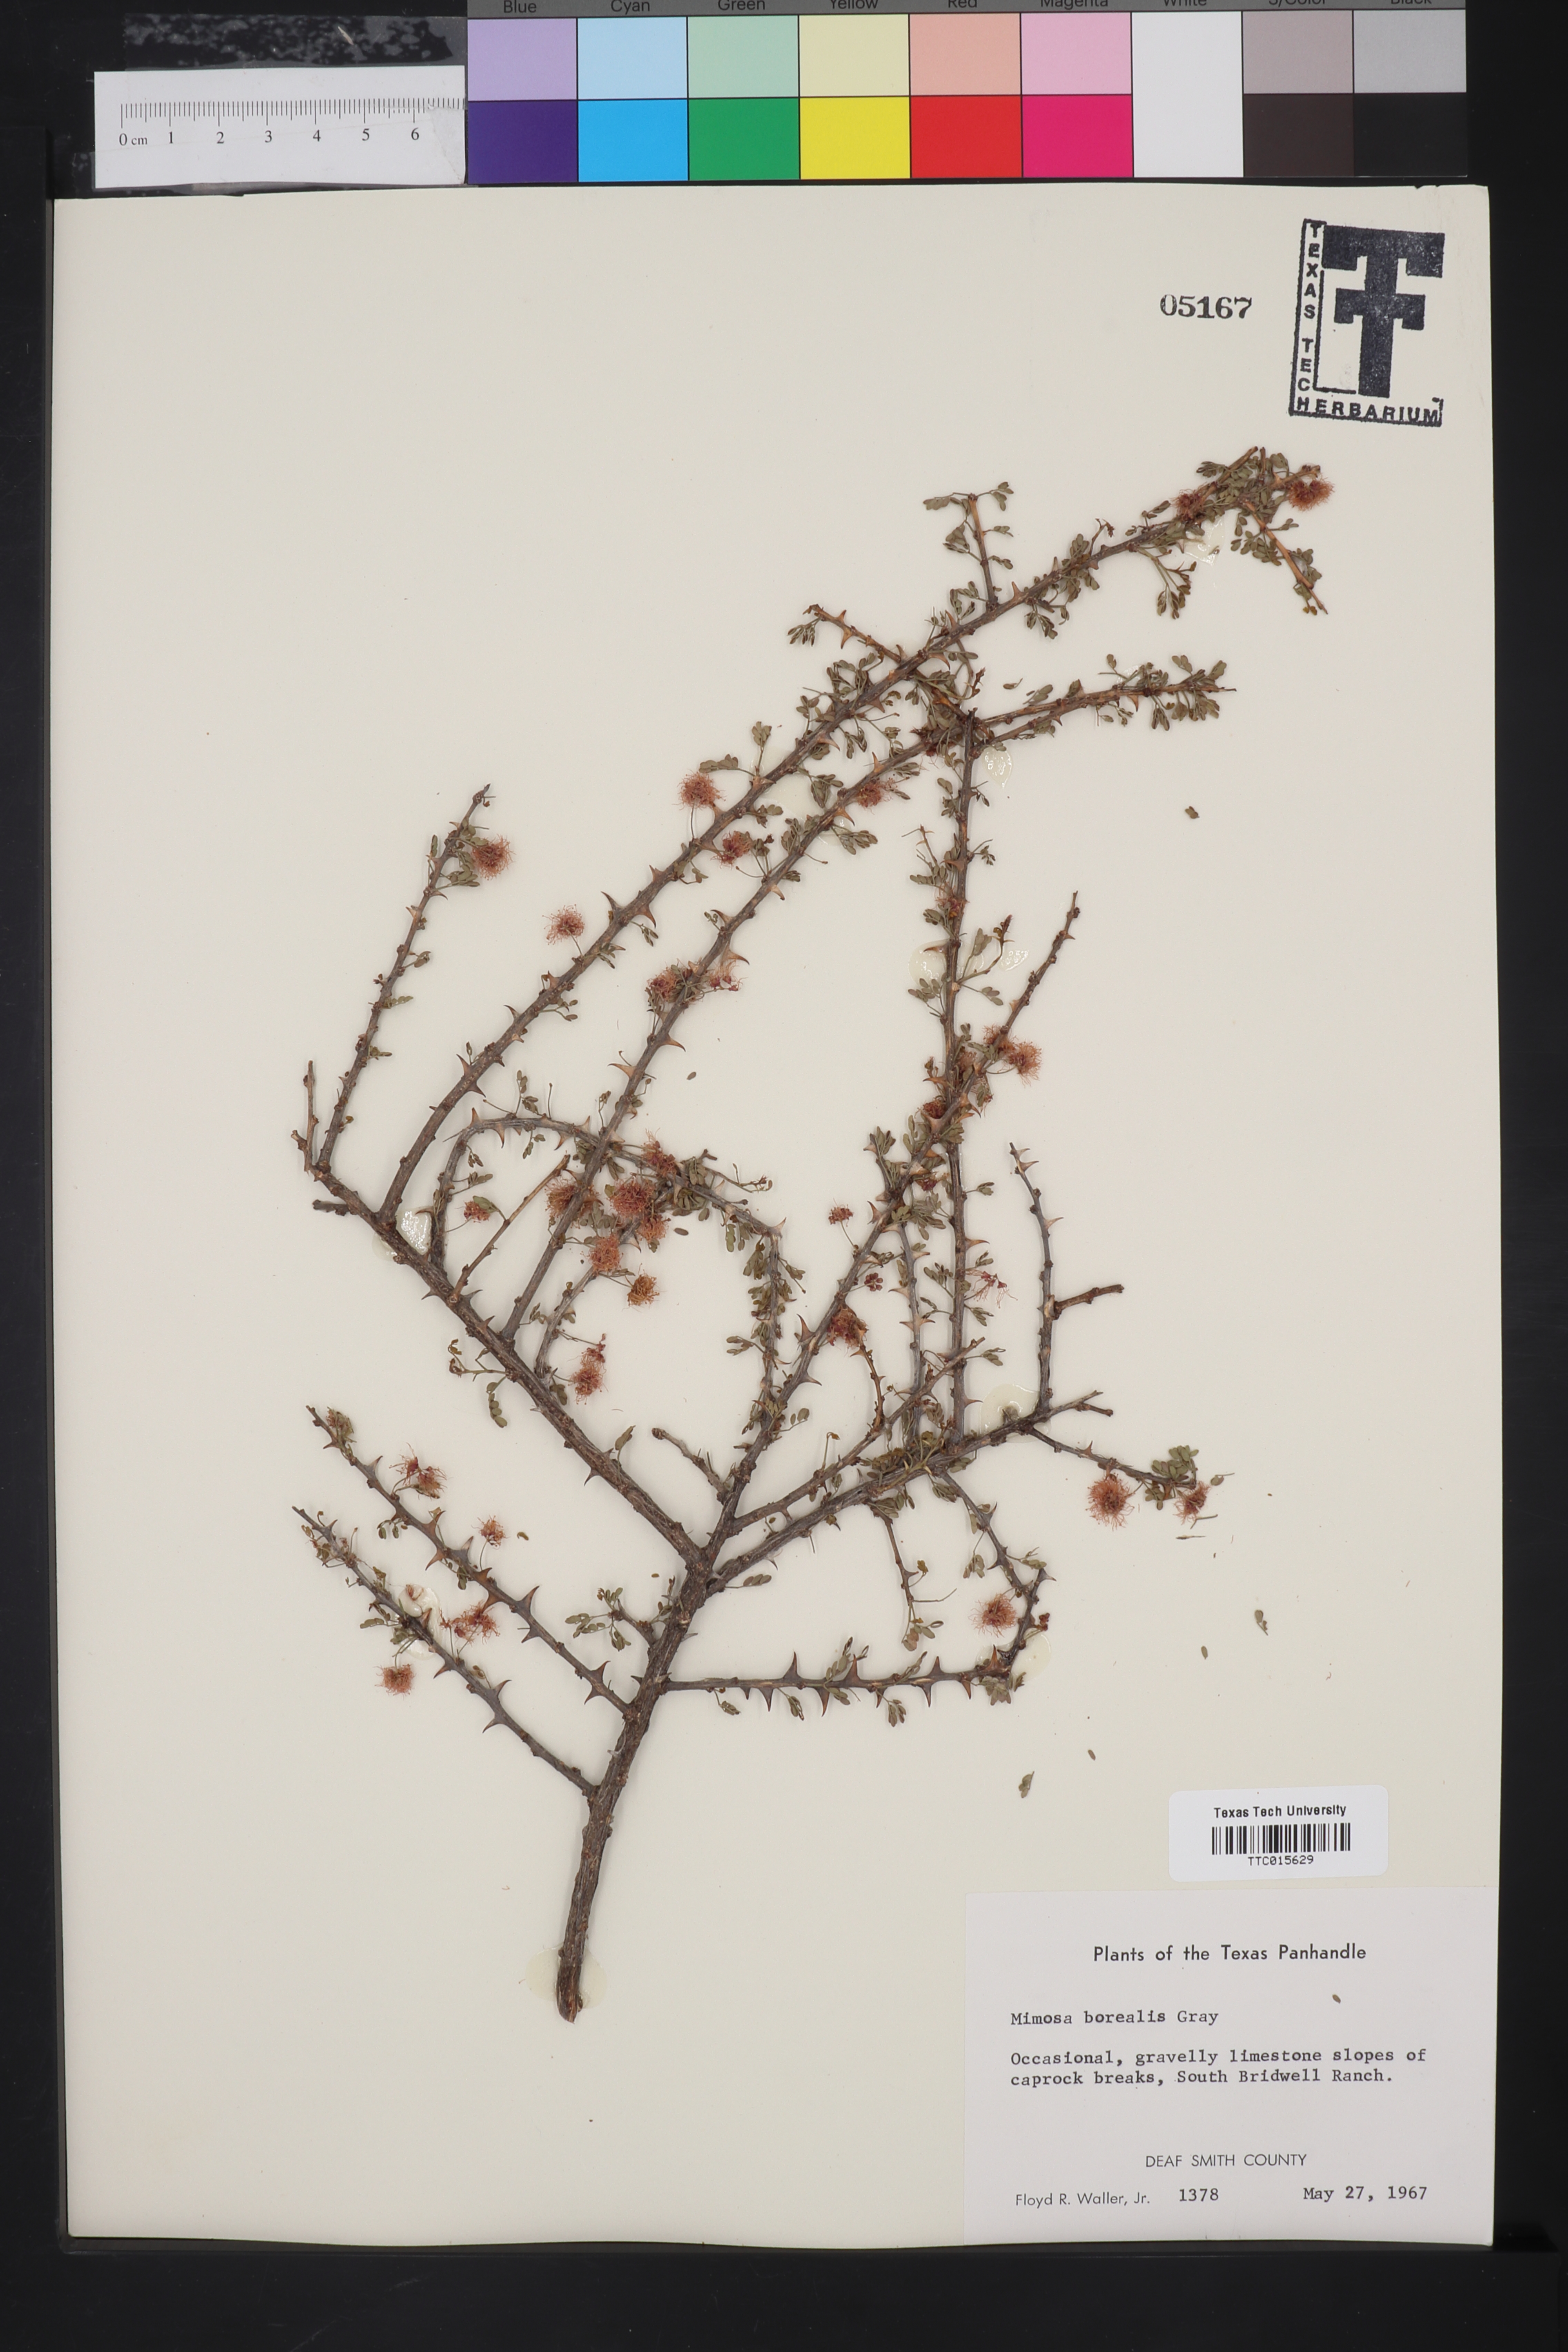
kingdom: Plantae
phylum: Tracheophyta
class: Magnoliopsida
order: Fabales
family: Fabaceae
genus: Mimosa
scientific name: Mimosa borealis
